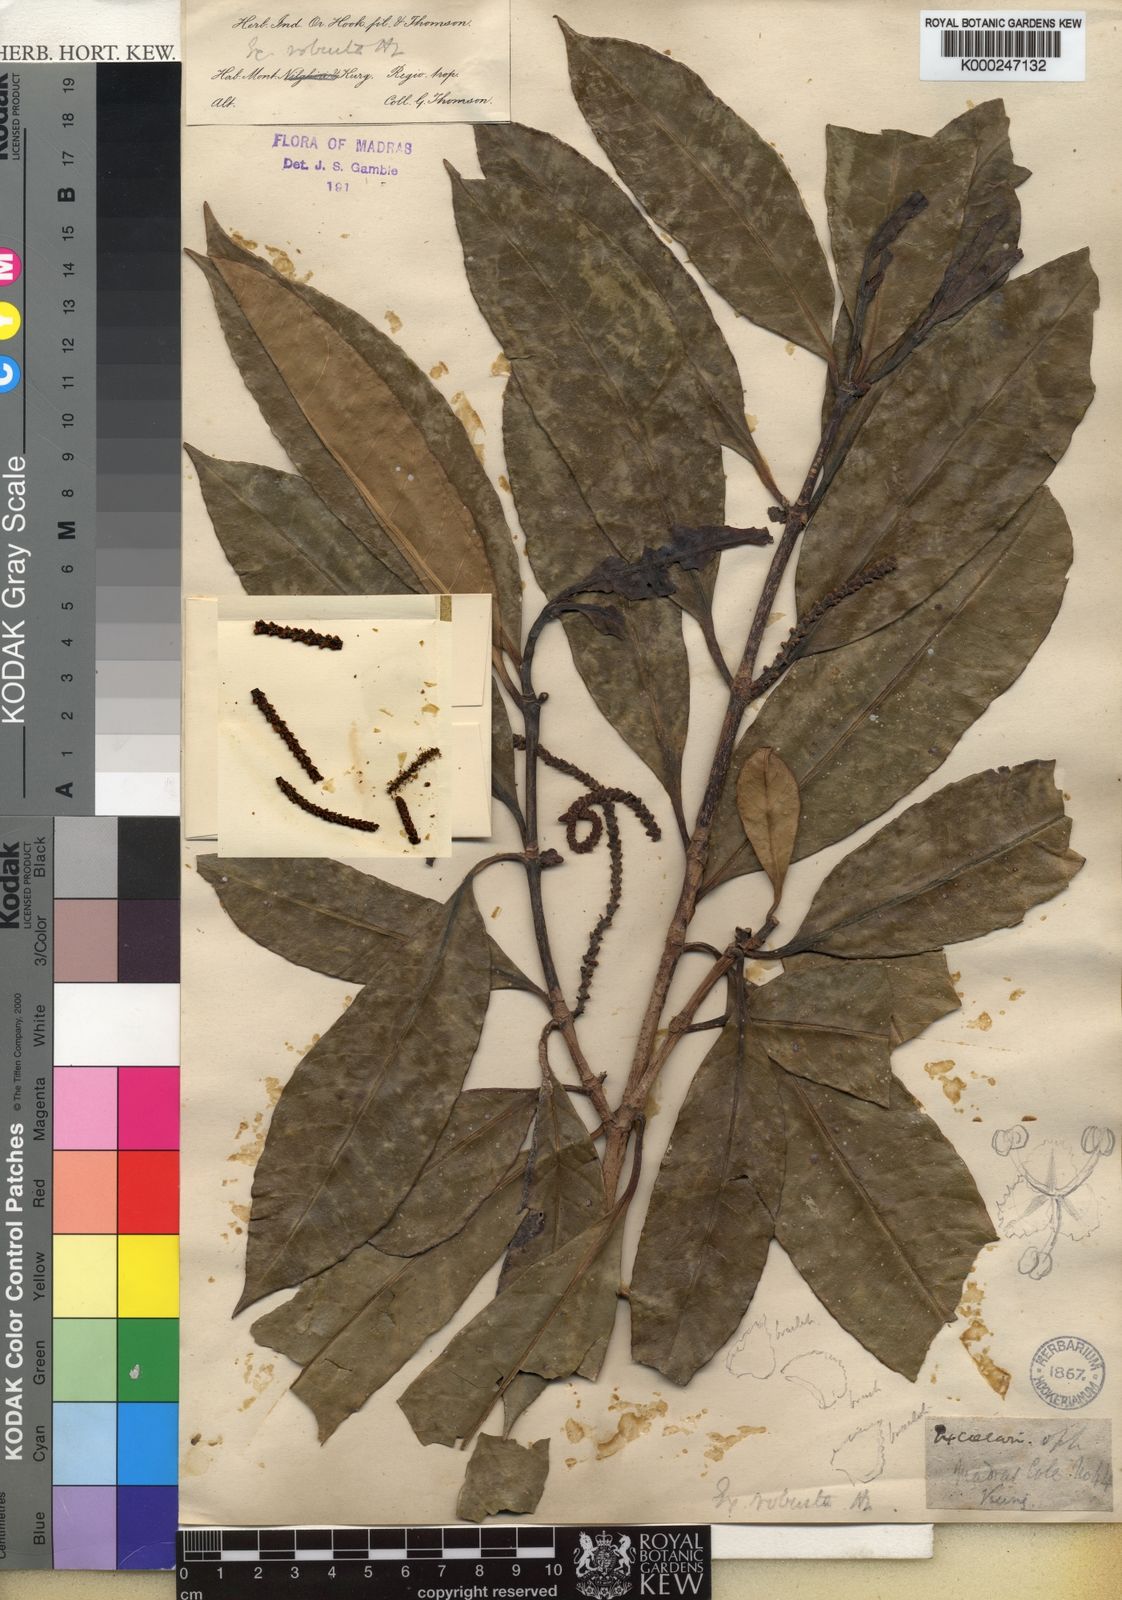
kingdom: Plantae
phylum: Tracheophyta
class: Magnoliopsida
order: Malpighiales
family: Euphorbiaceae
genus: Excoecaria
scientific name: Excoecaria oppositifolia
